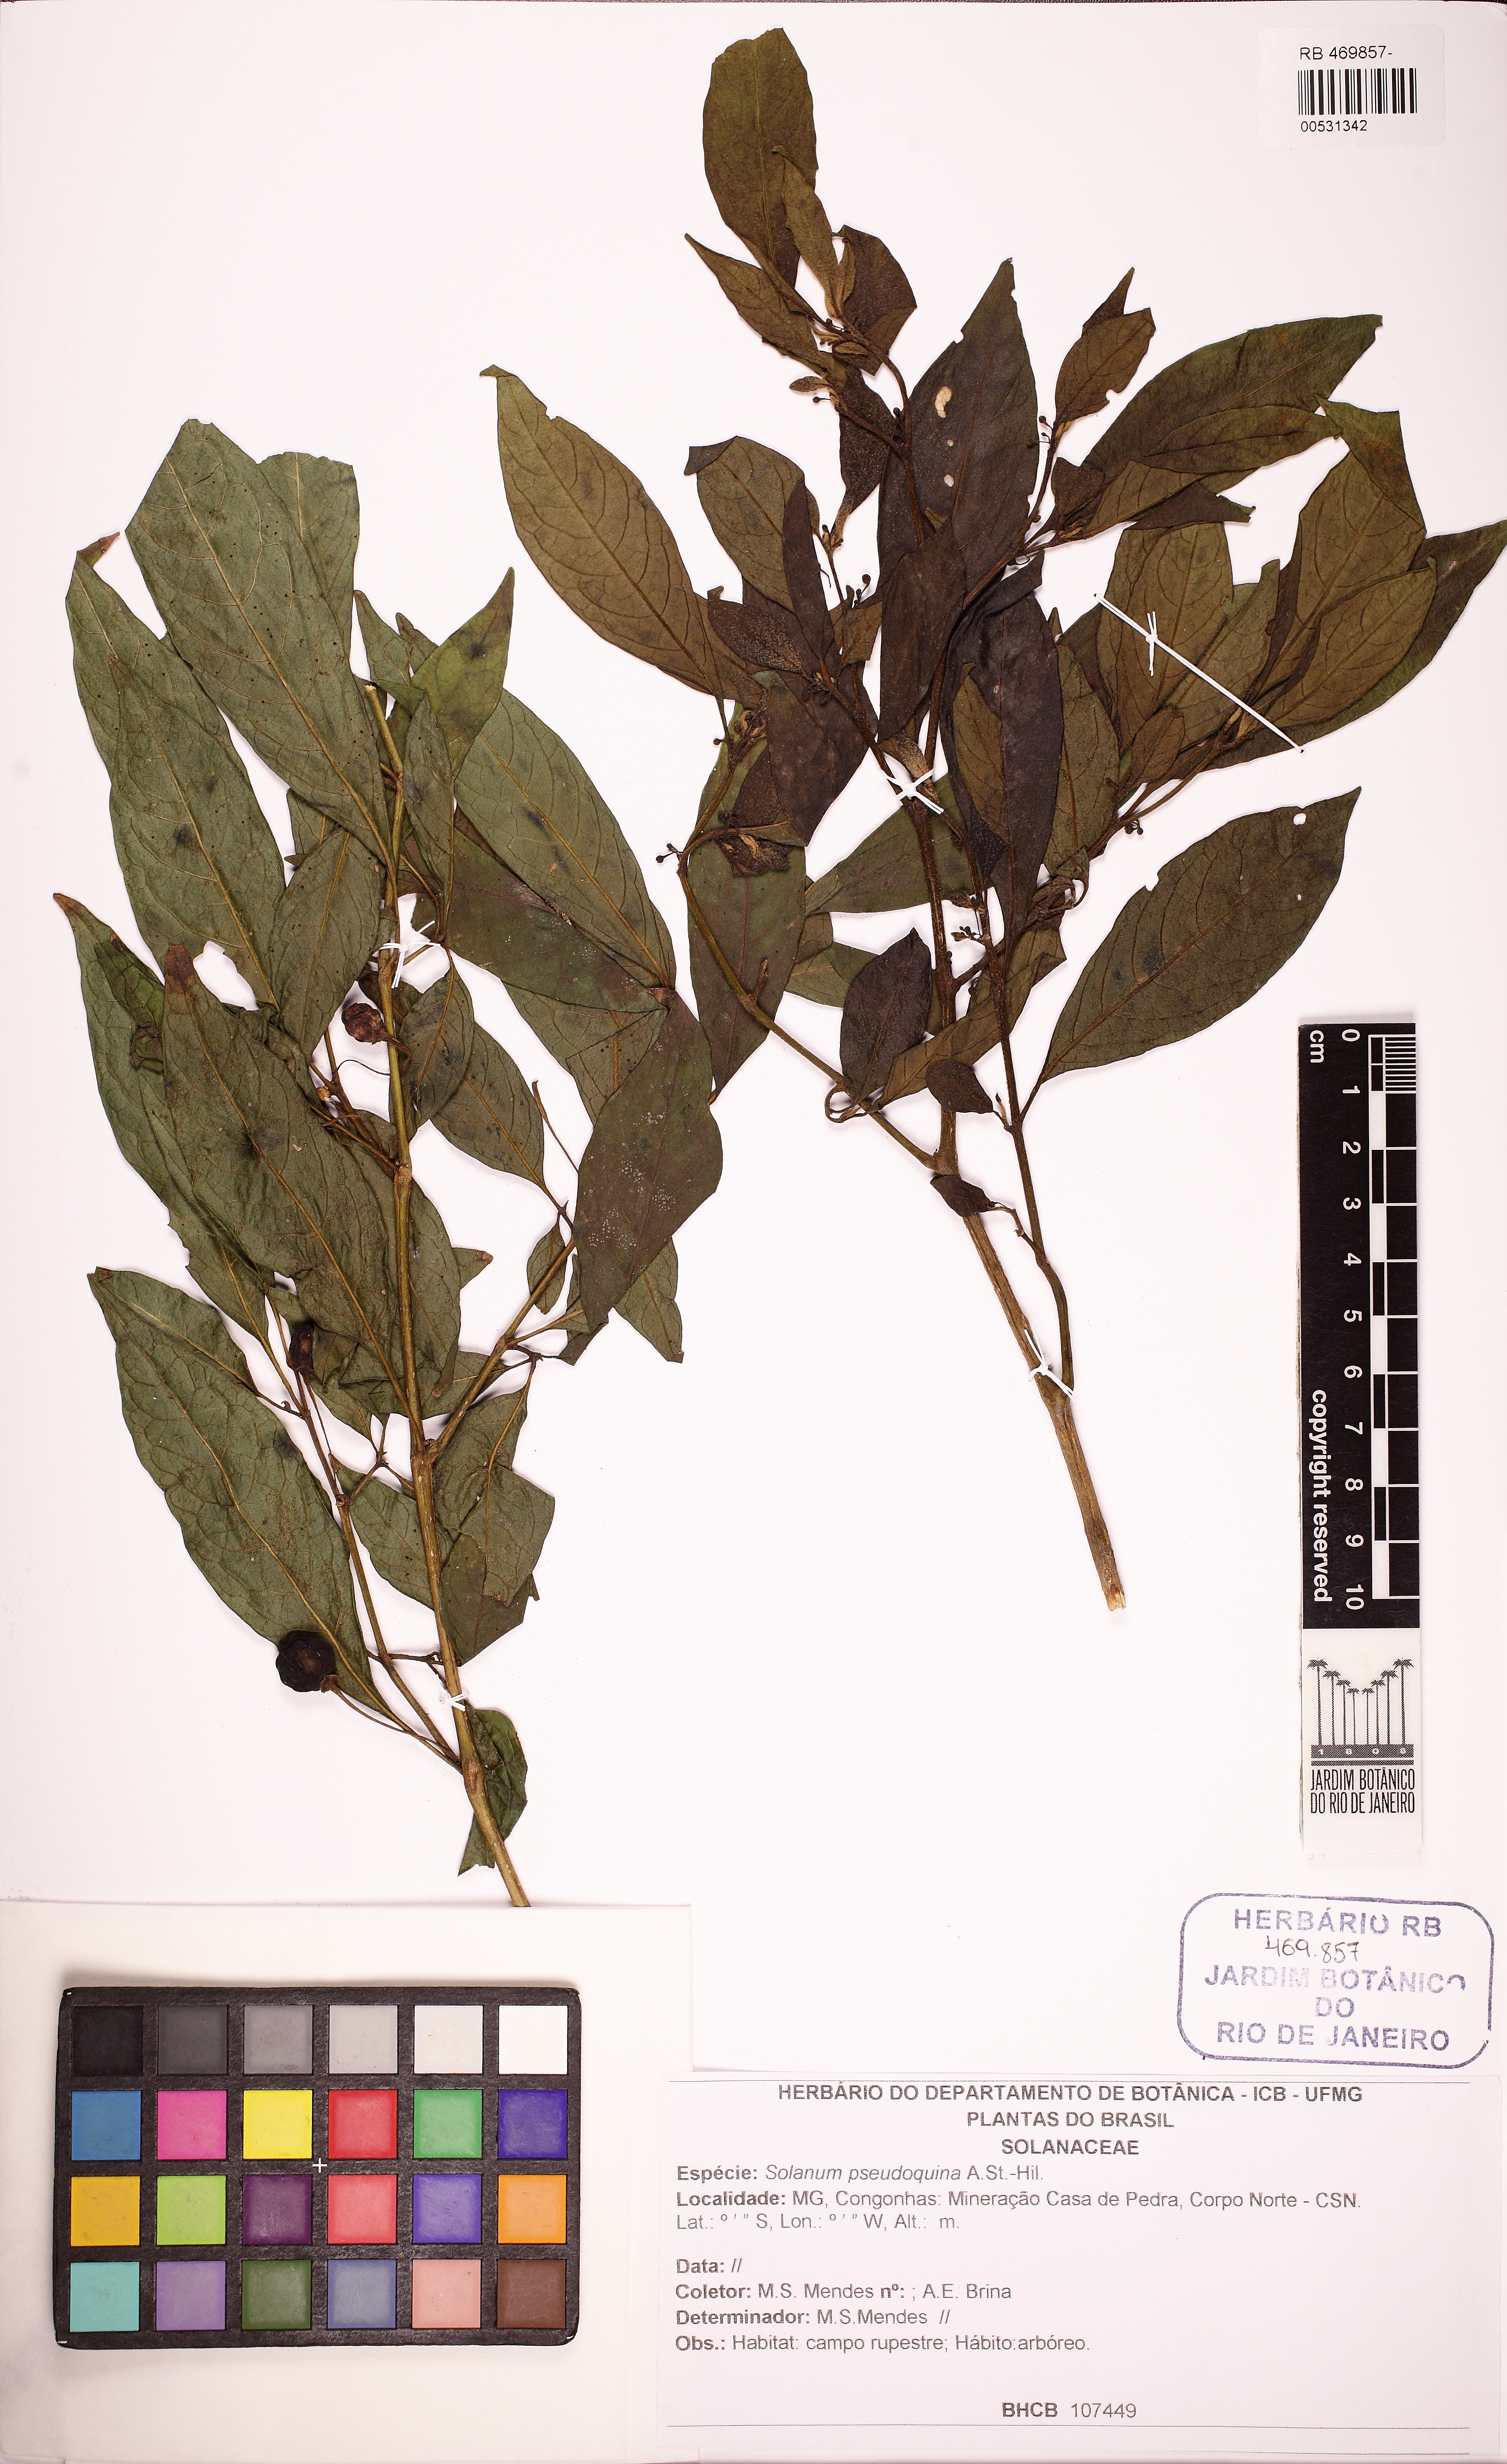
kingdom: Plantae
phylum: Tracheophyta
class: Magnoliopsida
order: Solanales
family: Solanaceae
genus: Solanum
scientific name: Solanum pseudoquina
